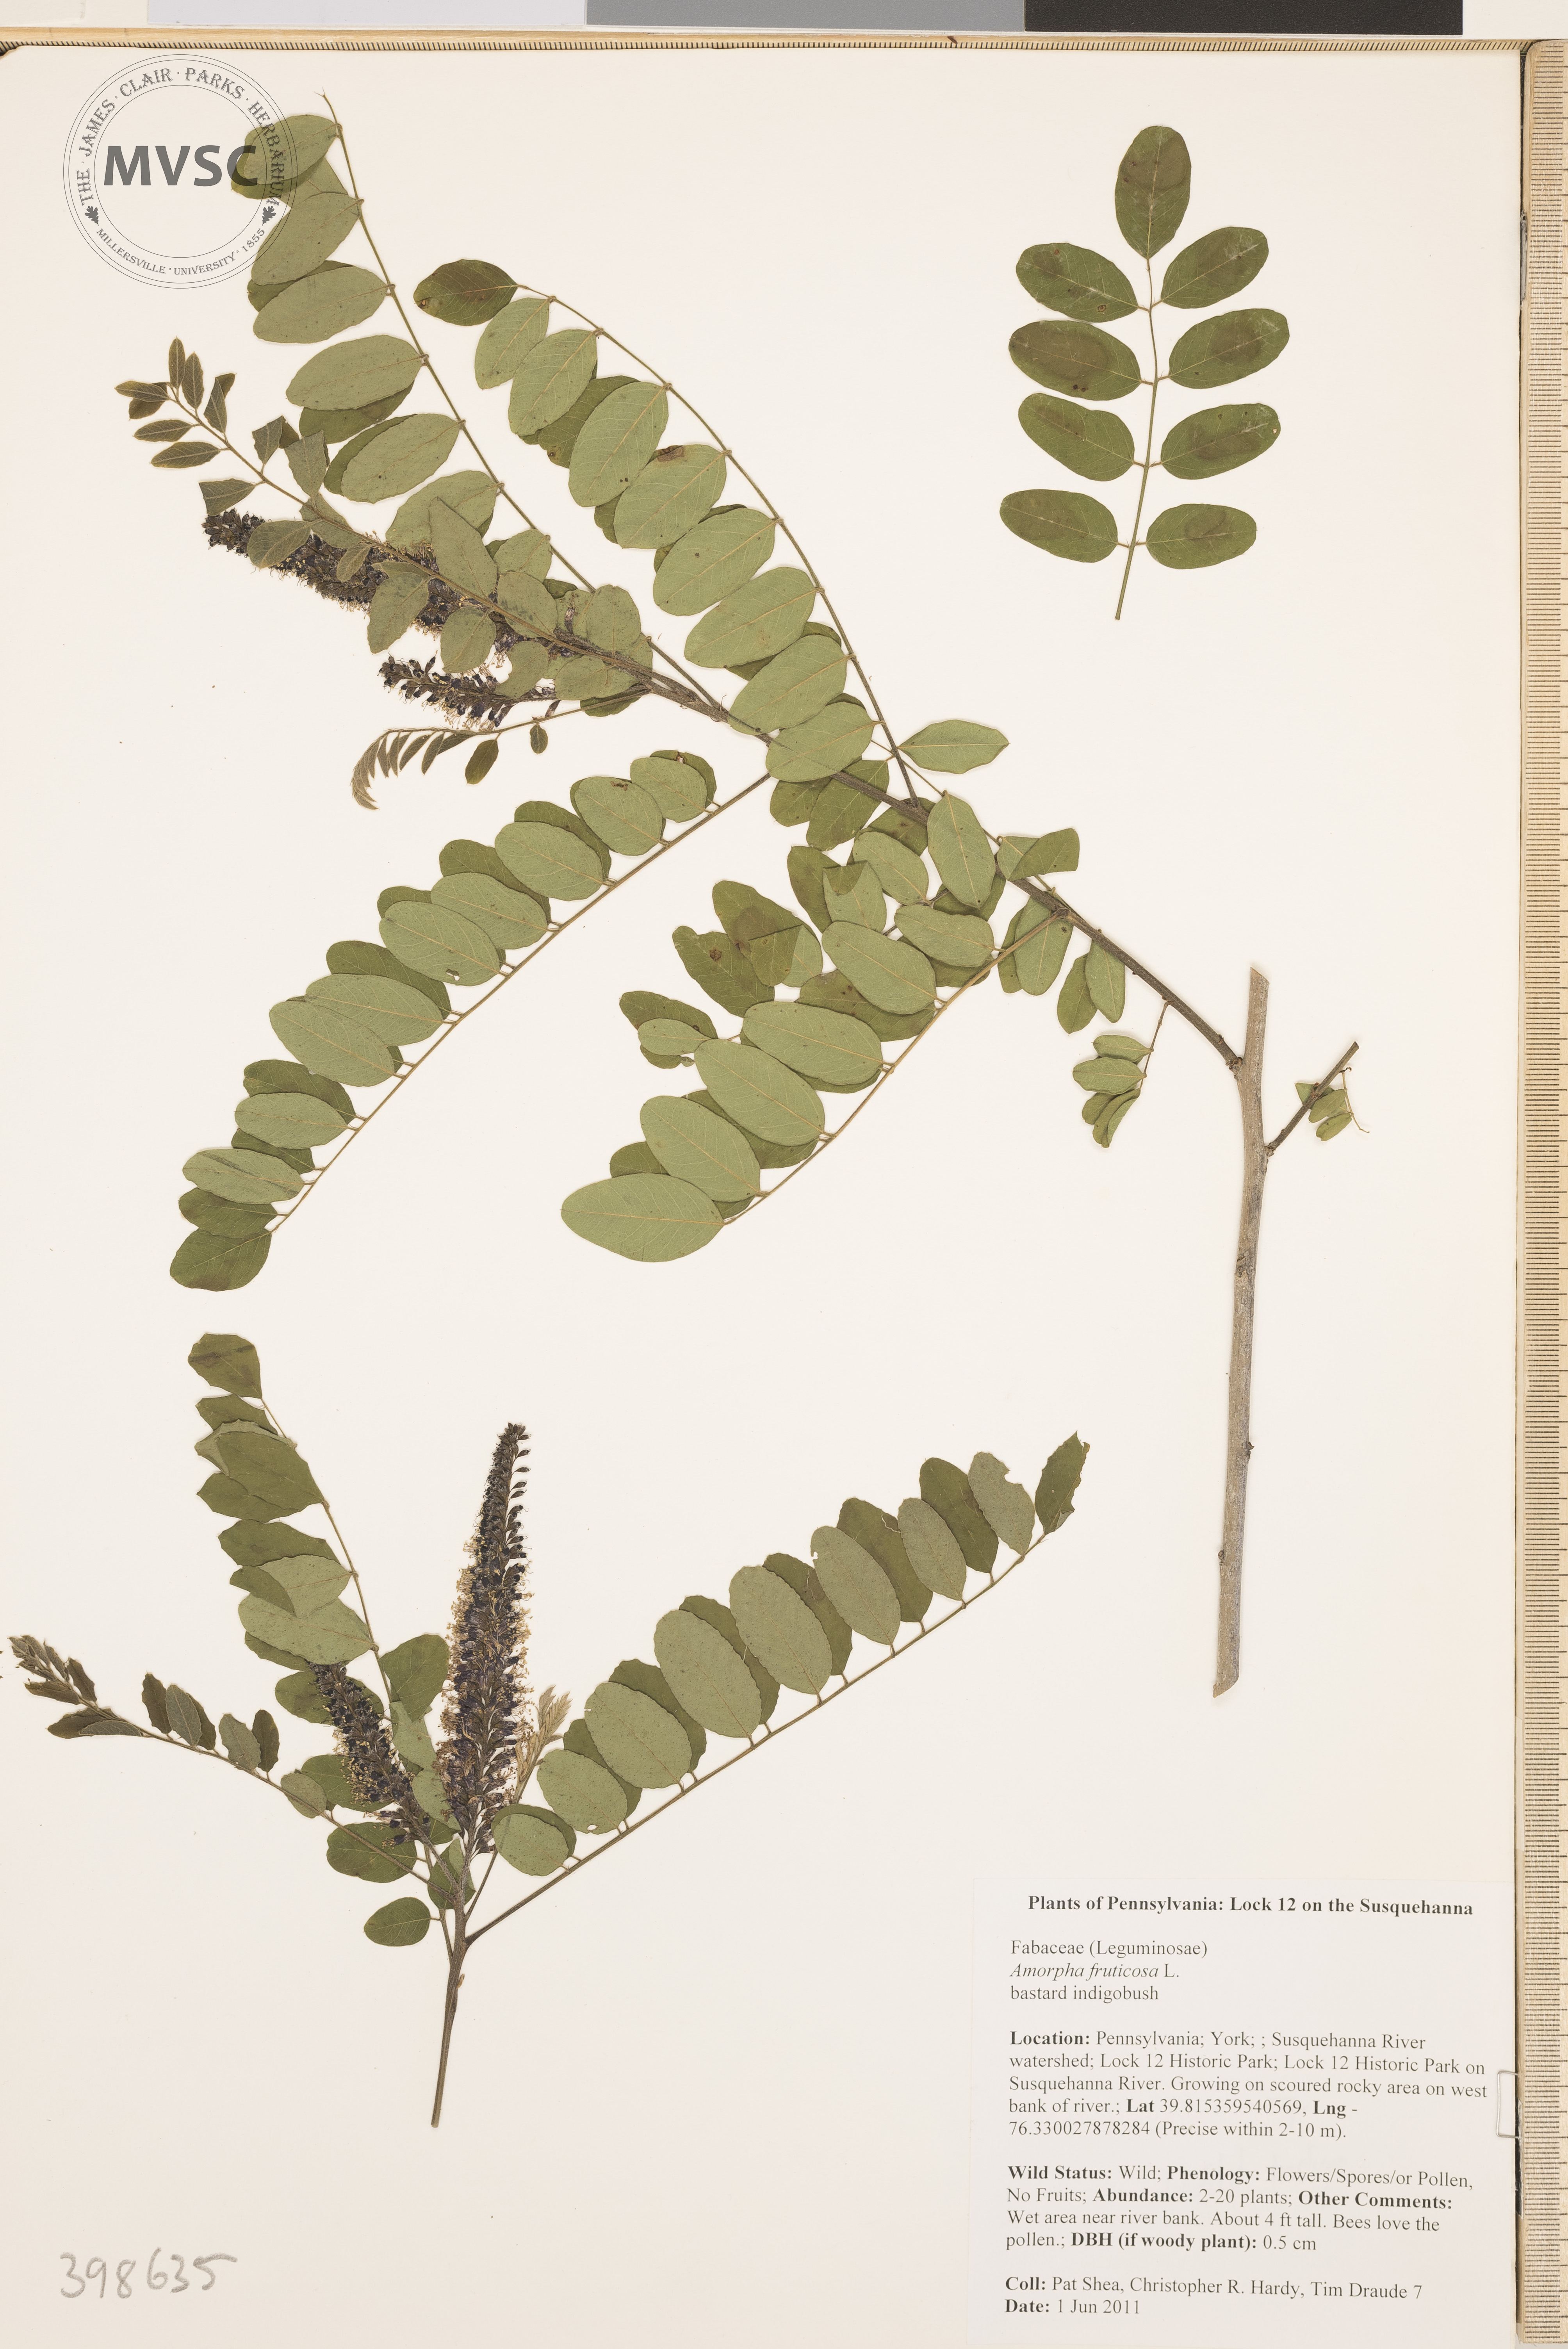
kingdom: Plantae
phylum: Tracheophyta
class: Magnoliopsida
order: Fabales
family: Fabaceae
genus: Amorpha
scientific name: Amorpha fruticosa
